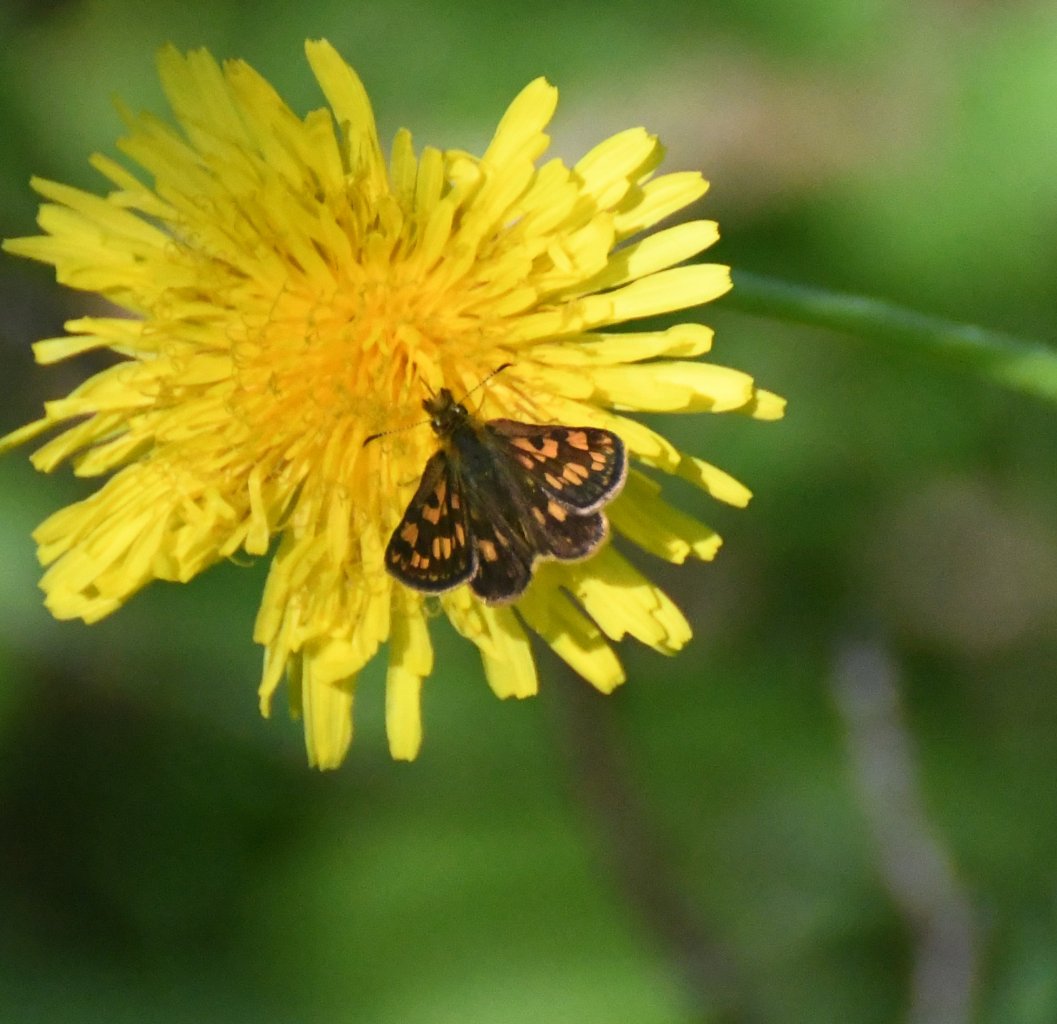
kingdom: Animalia
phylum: Arthropoda
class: Insecta
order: Lepidoptera
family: Hesperiidae
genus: Carterocephalus
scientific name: Carterocephalus palaemon
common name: Chequered Skipper
